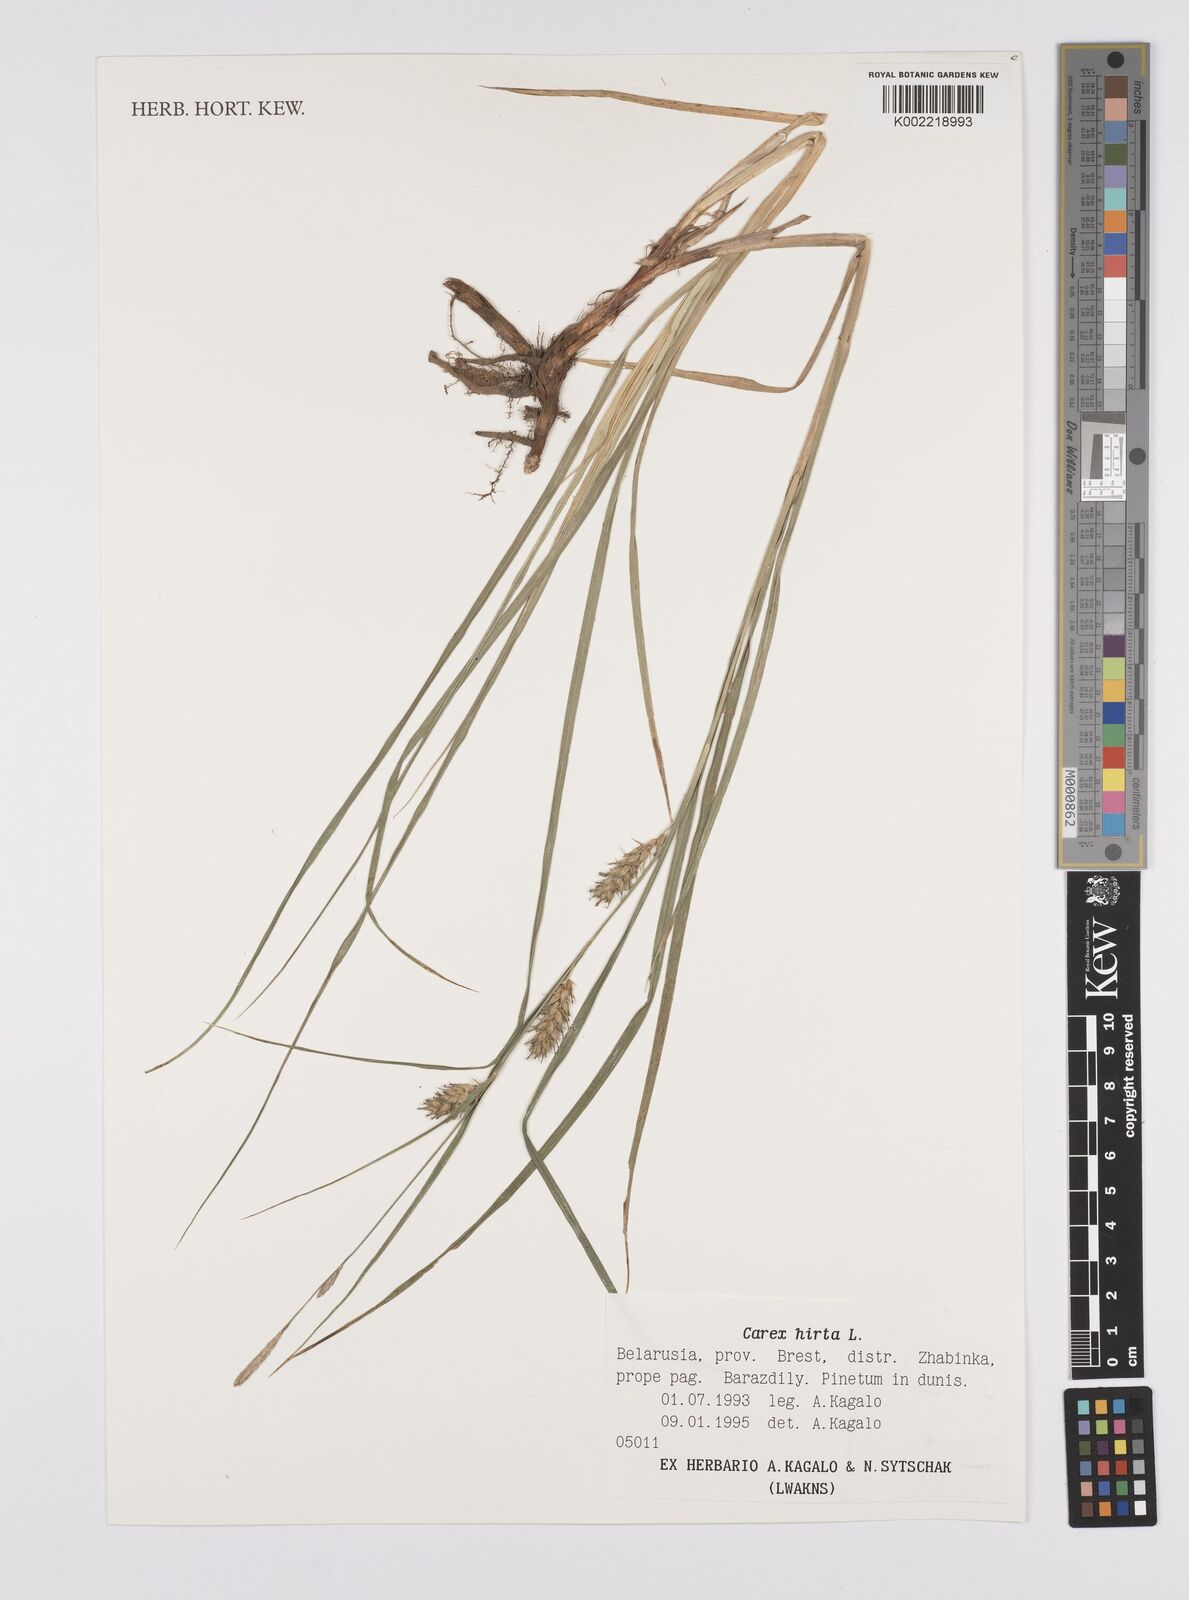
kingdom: Plantae
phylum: Tracheophyta
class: Liliopsida
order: Poales
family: Cyperaceae
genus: Carex
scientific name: Carex hirta
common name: Hairy sedge
